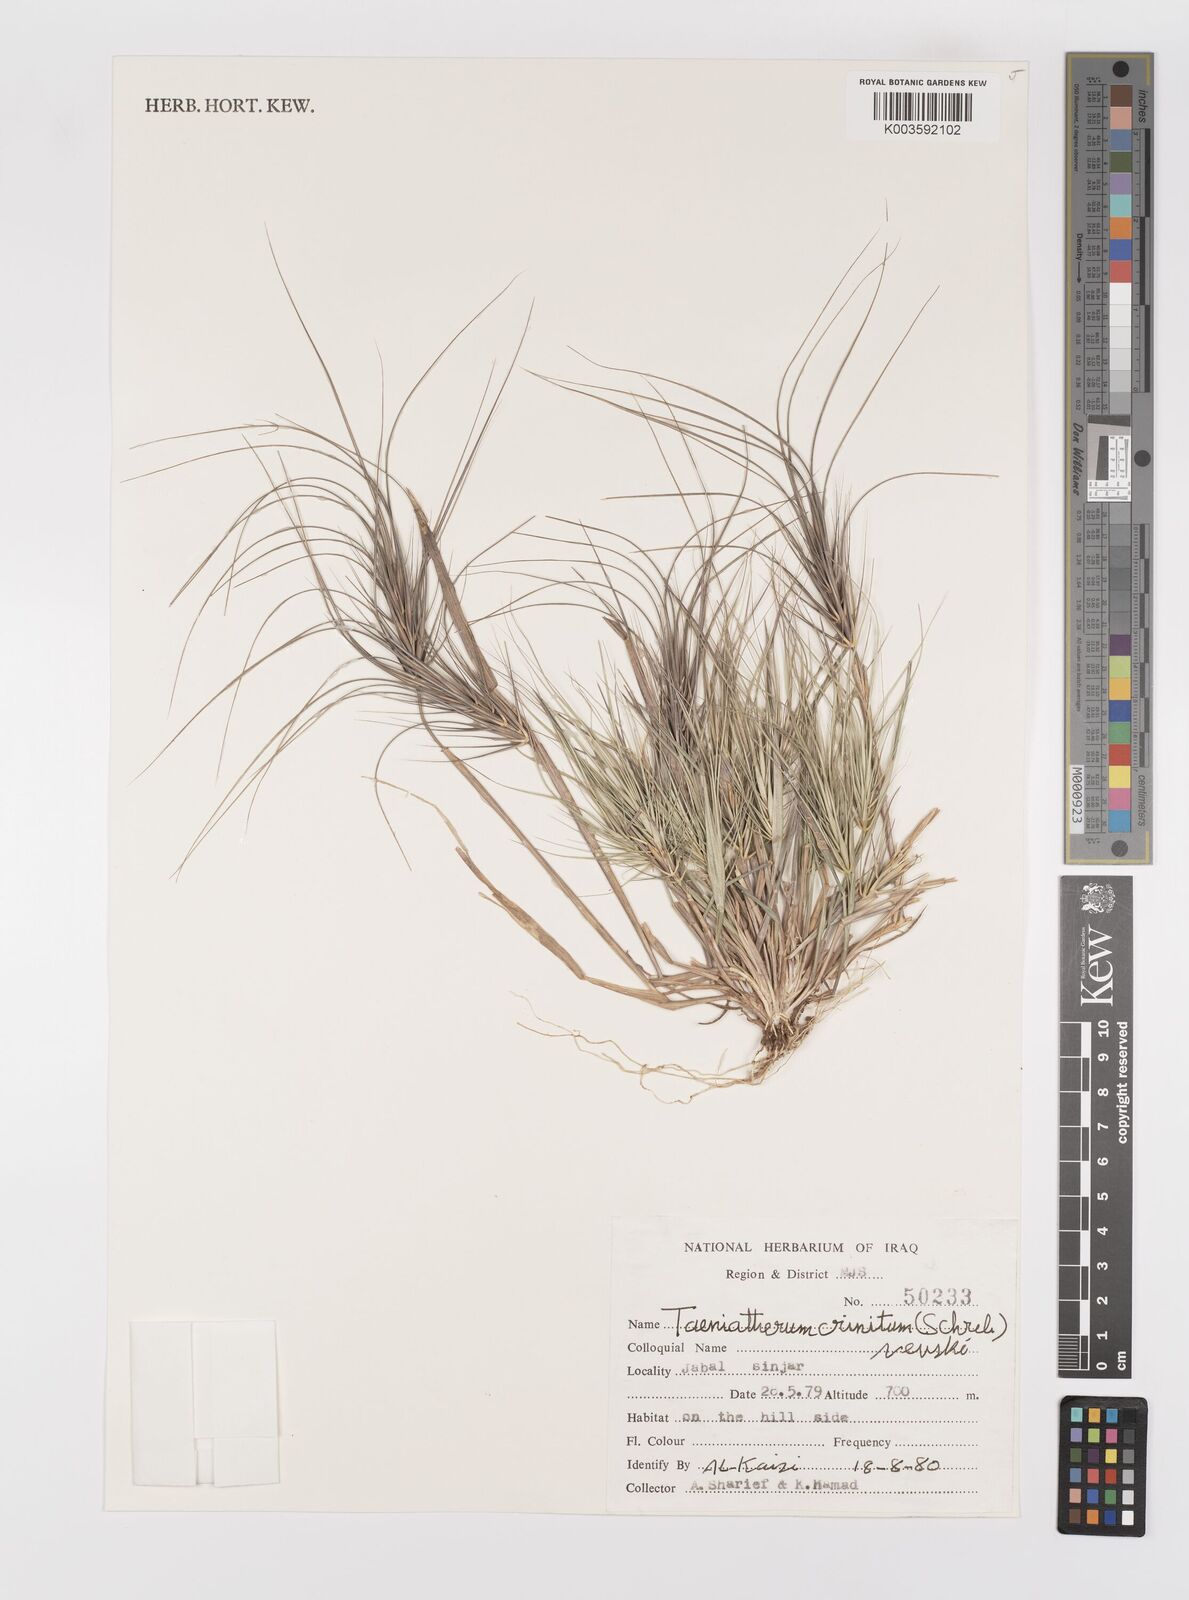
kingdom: Plantae
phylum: Tracheophyta
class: Liliopsida
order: Poales
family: Poaceae
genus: Taeniatherum
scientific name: Taeniatherum caput-medusae
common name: Medusahead
